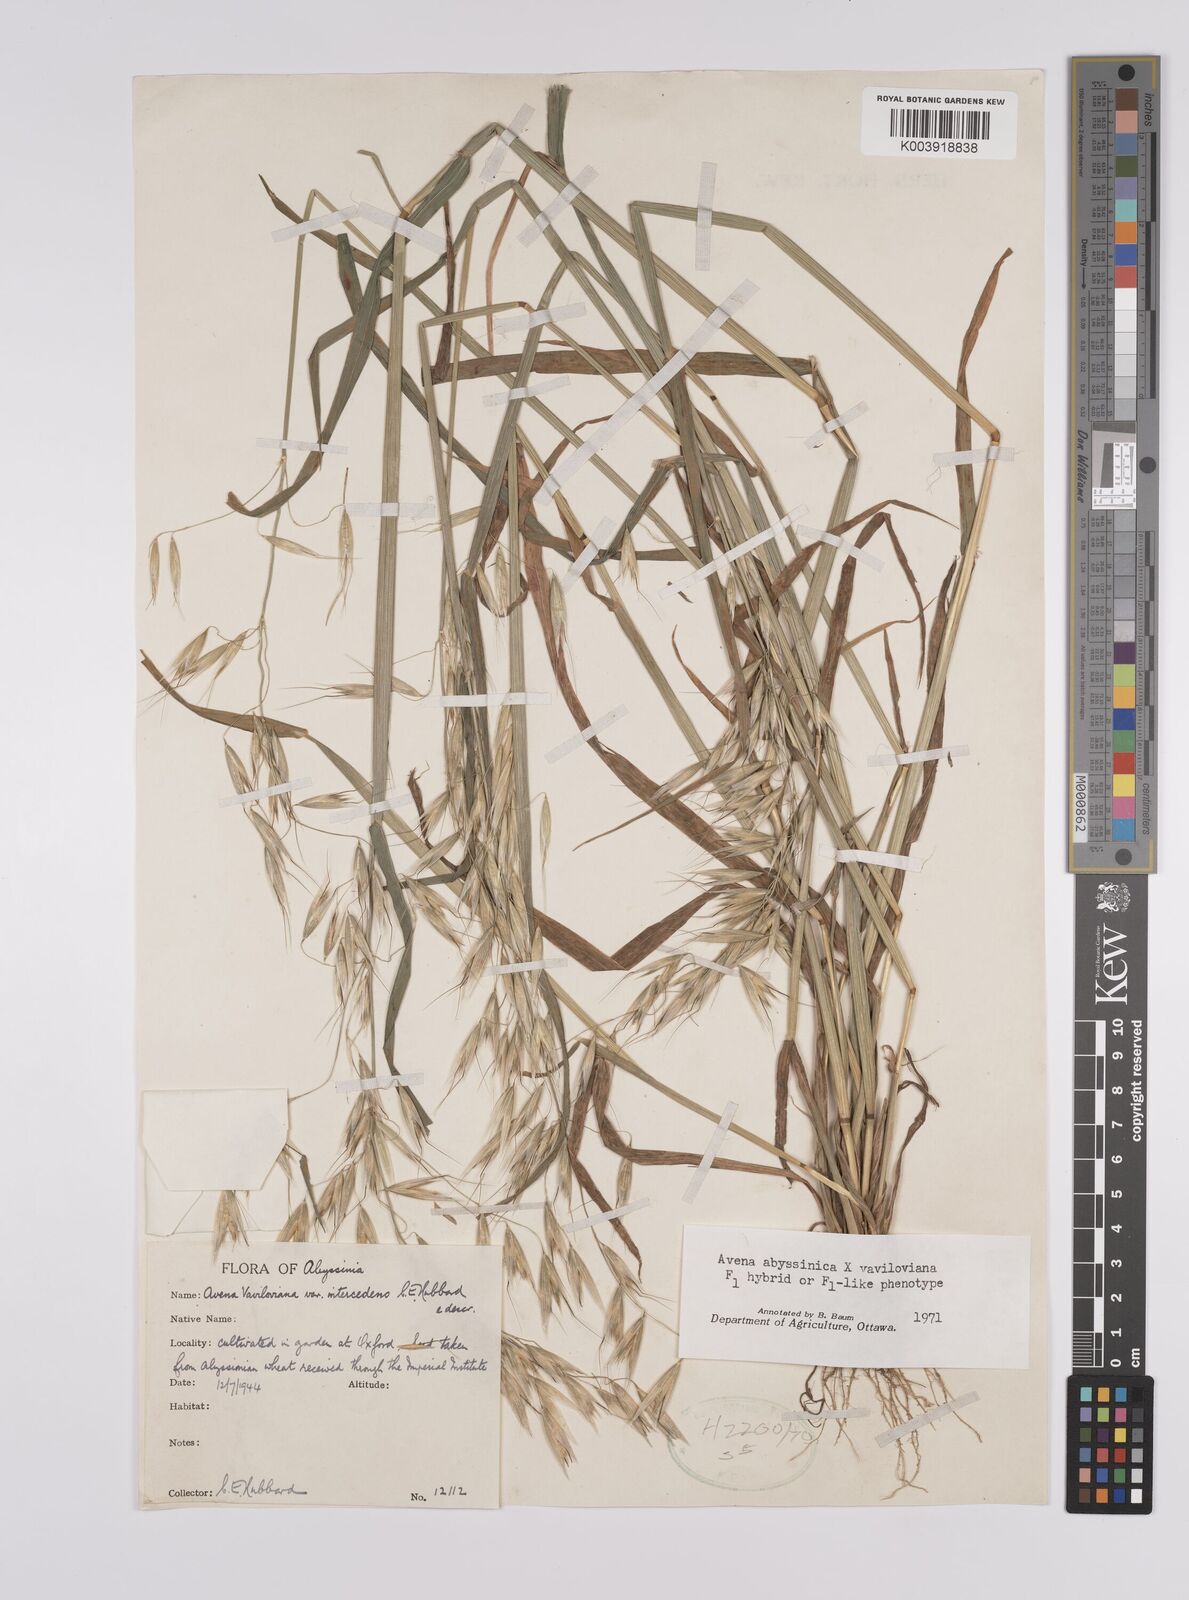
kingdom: Plantae
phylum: Tracheophyta
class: Liliopsida
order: Poales
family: Poaceae
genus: Avena
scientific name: Avena abyssinica
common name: Ethiopian oat
